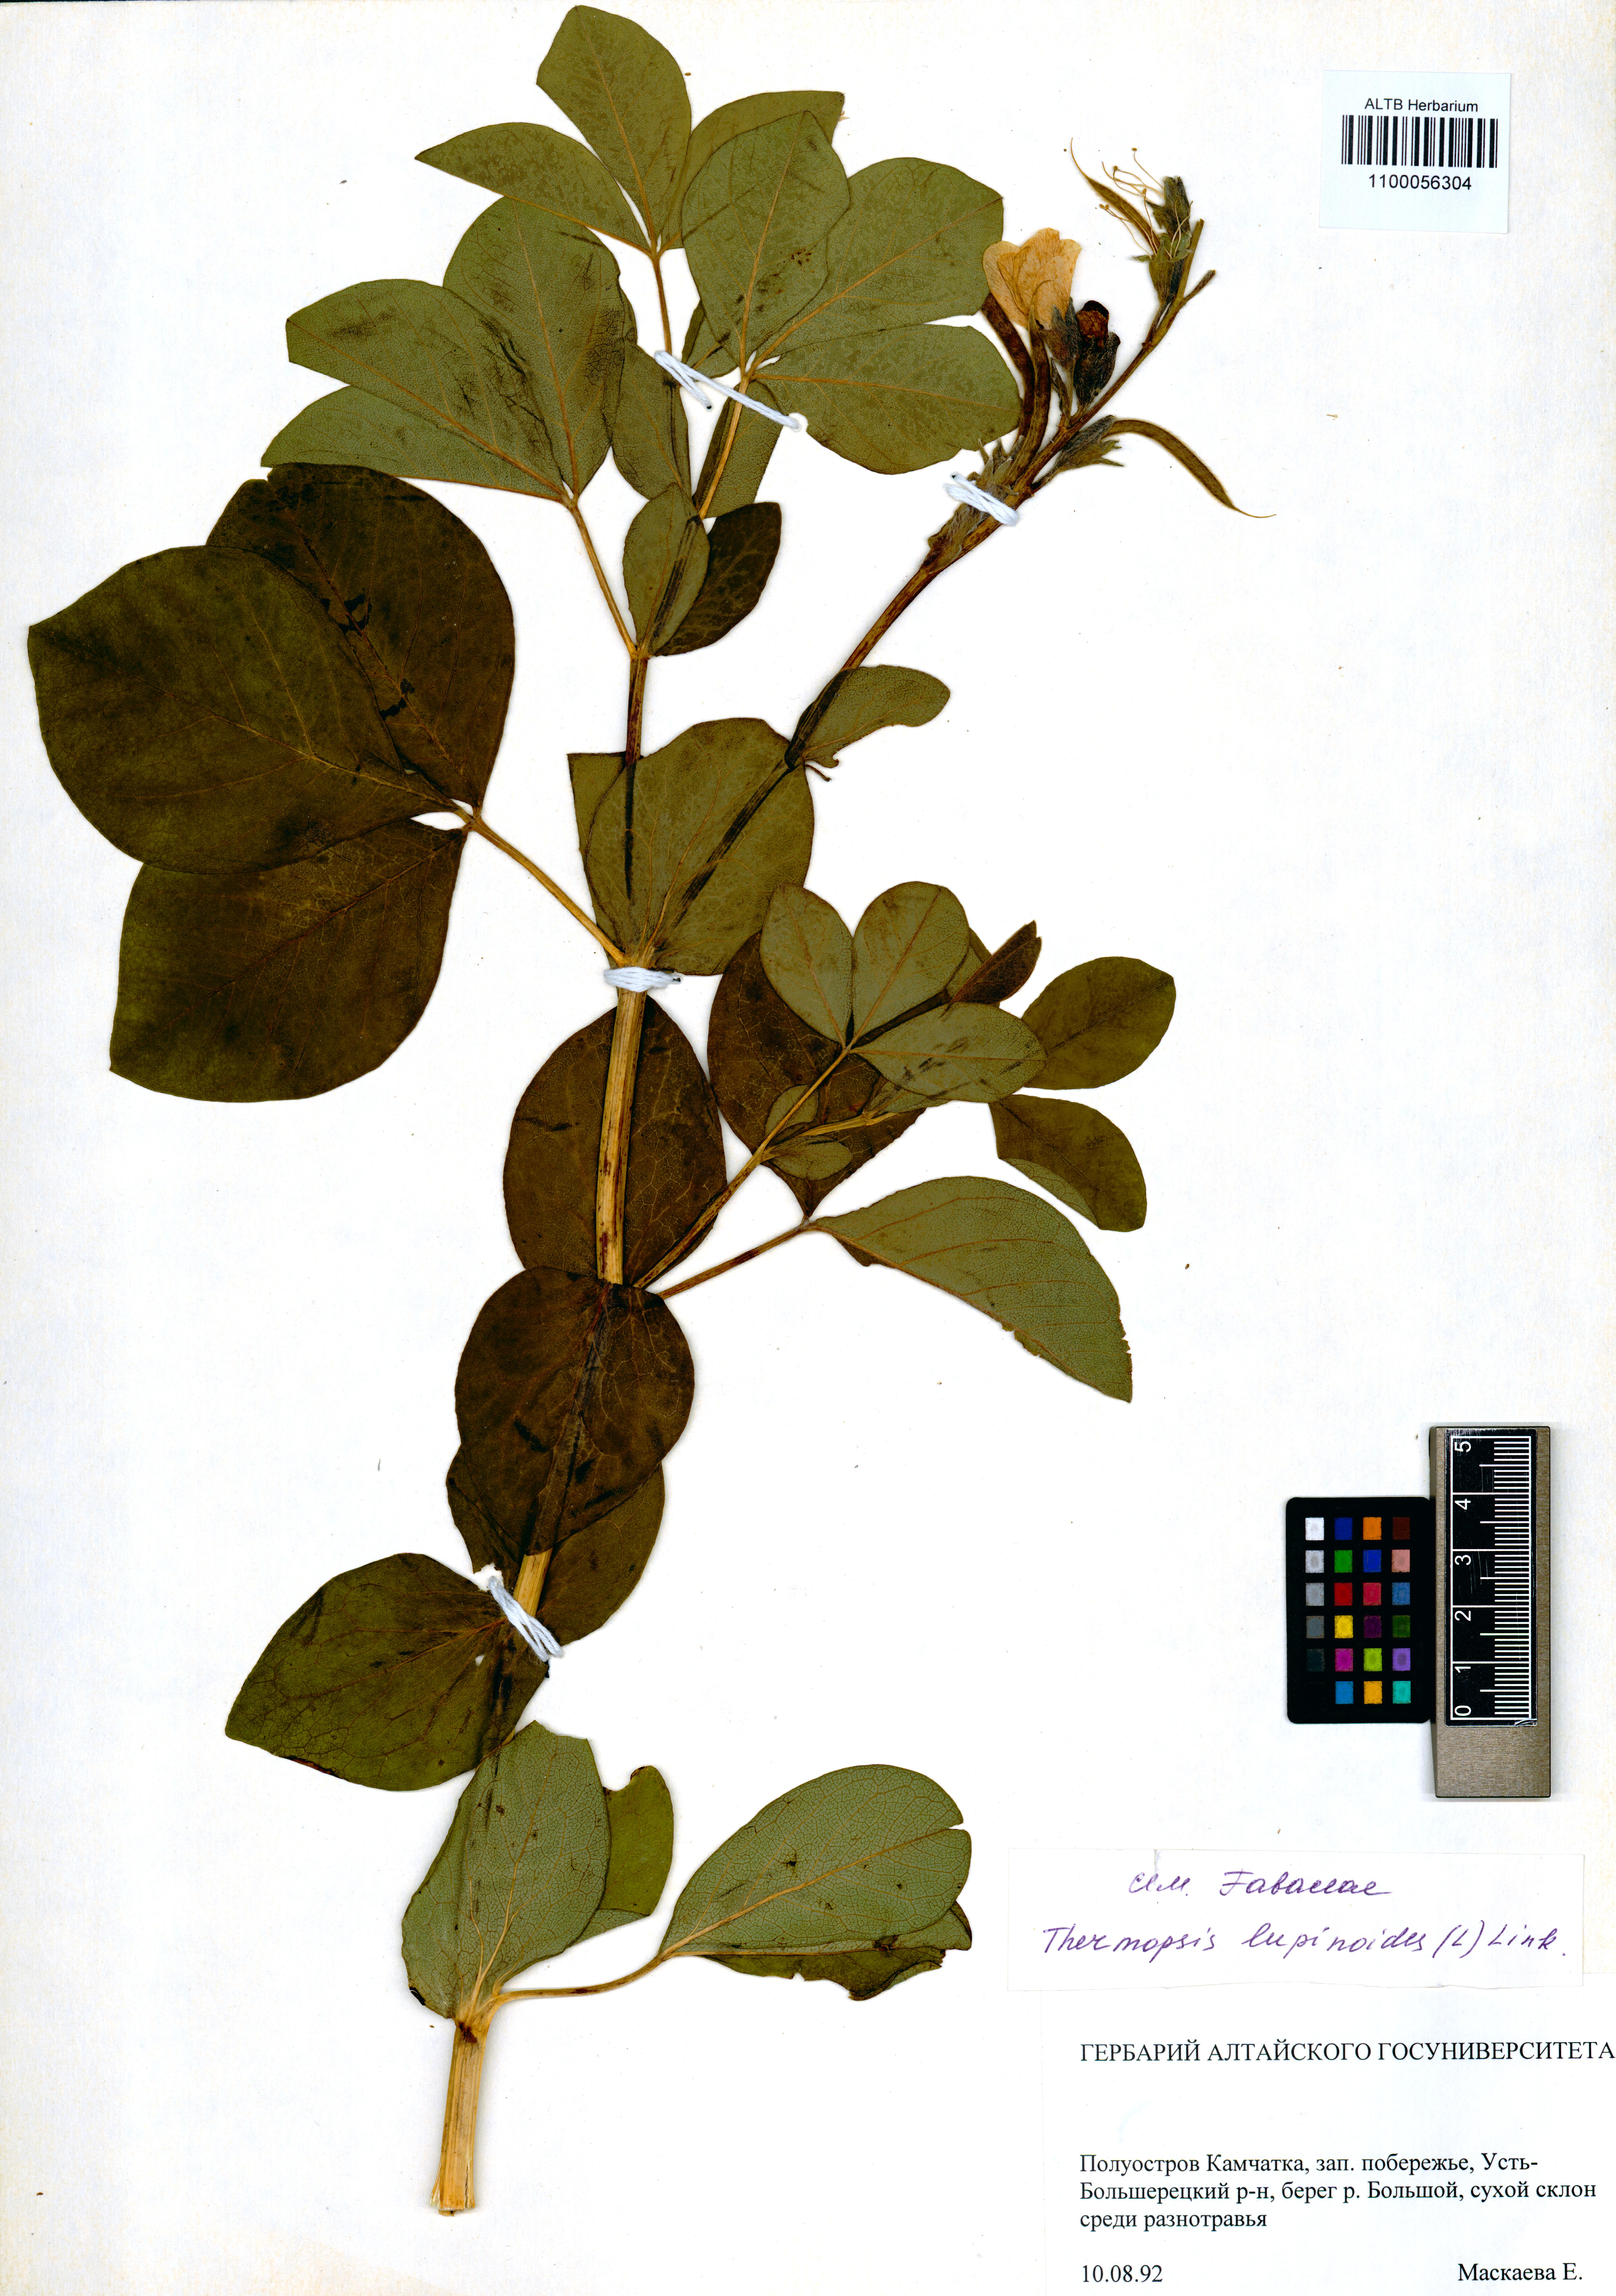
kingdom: Plantae
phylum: Tracheophyta
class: Magnoliopsida
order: Fabales
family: Fabaceae
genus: Thermopsis
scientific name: Thermopsis lanceolata
